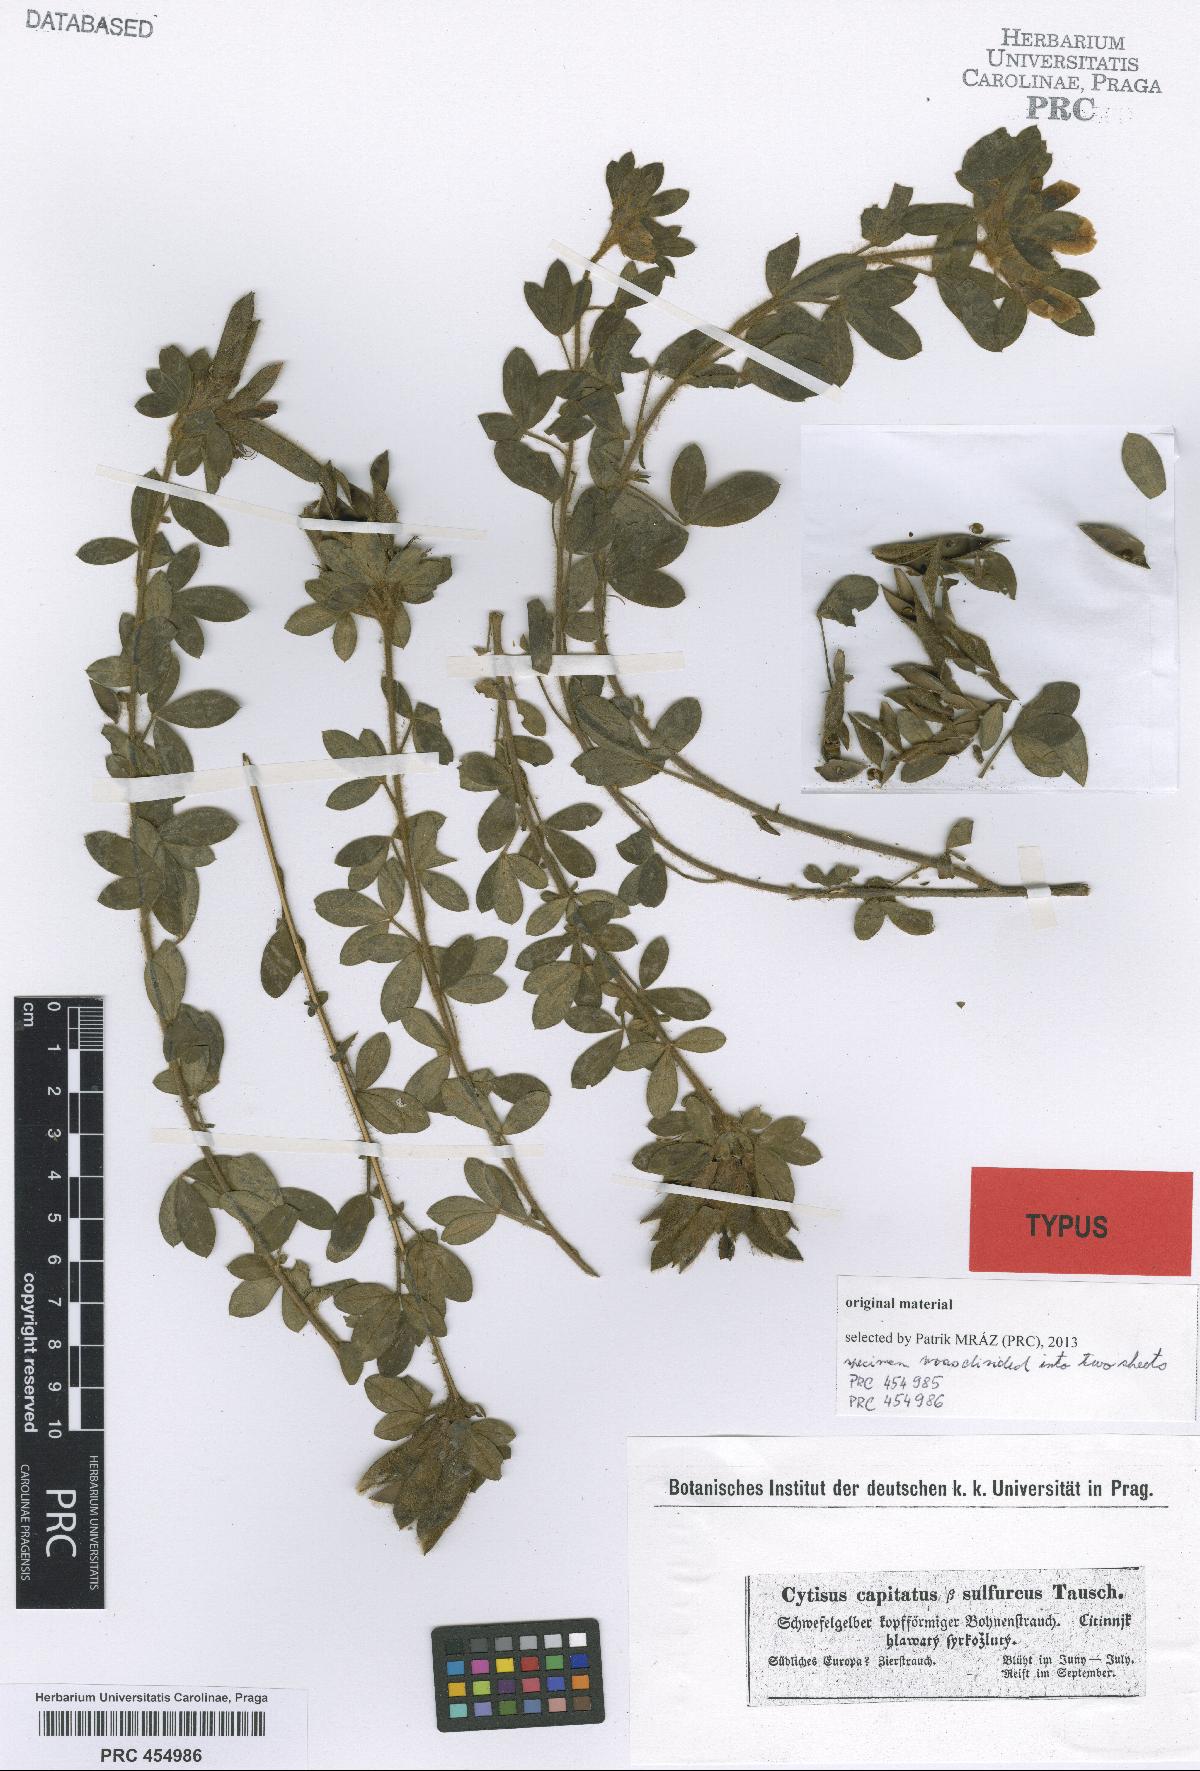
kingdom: Plantae
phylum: Tracheophyta
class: Magnoliopsida
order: Fabales
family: Fabaceae
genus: Chamaecytisus
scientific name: Chamaecytisus hirsutus
